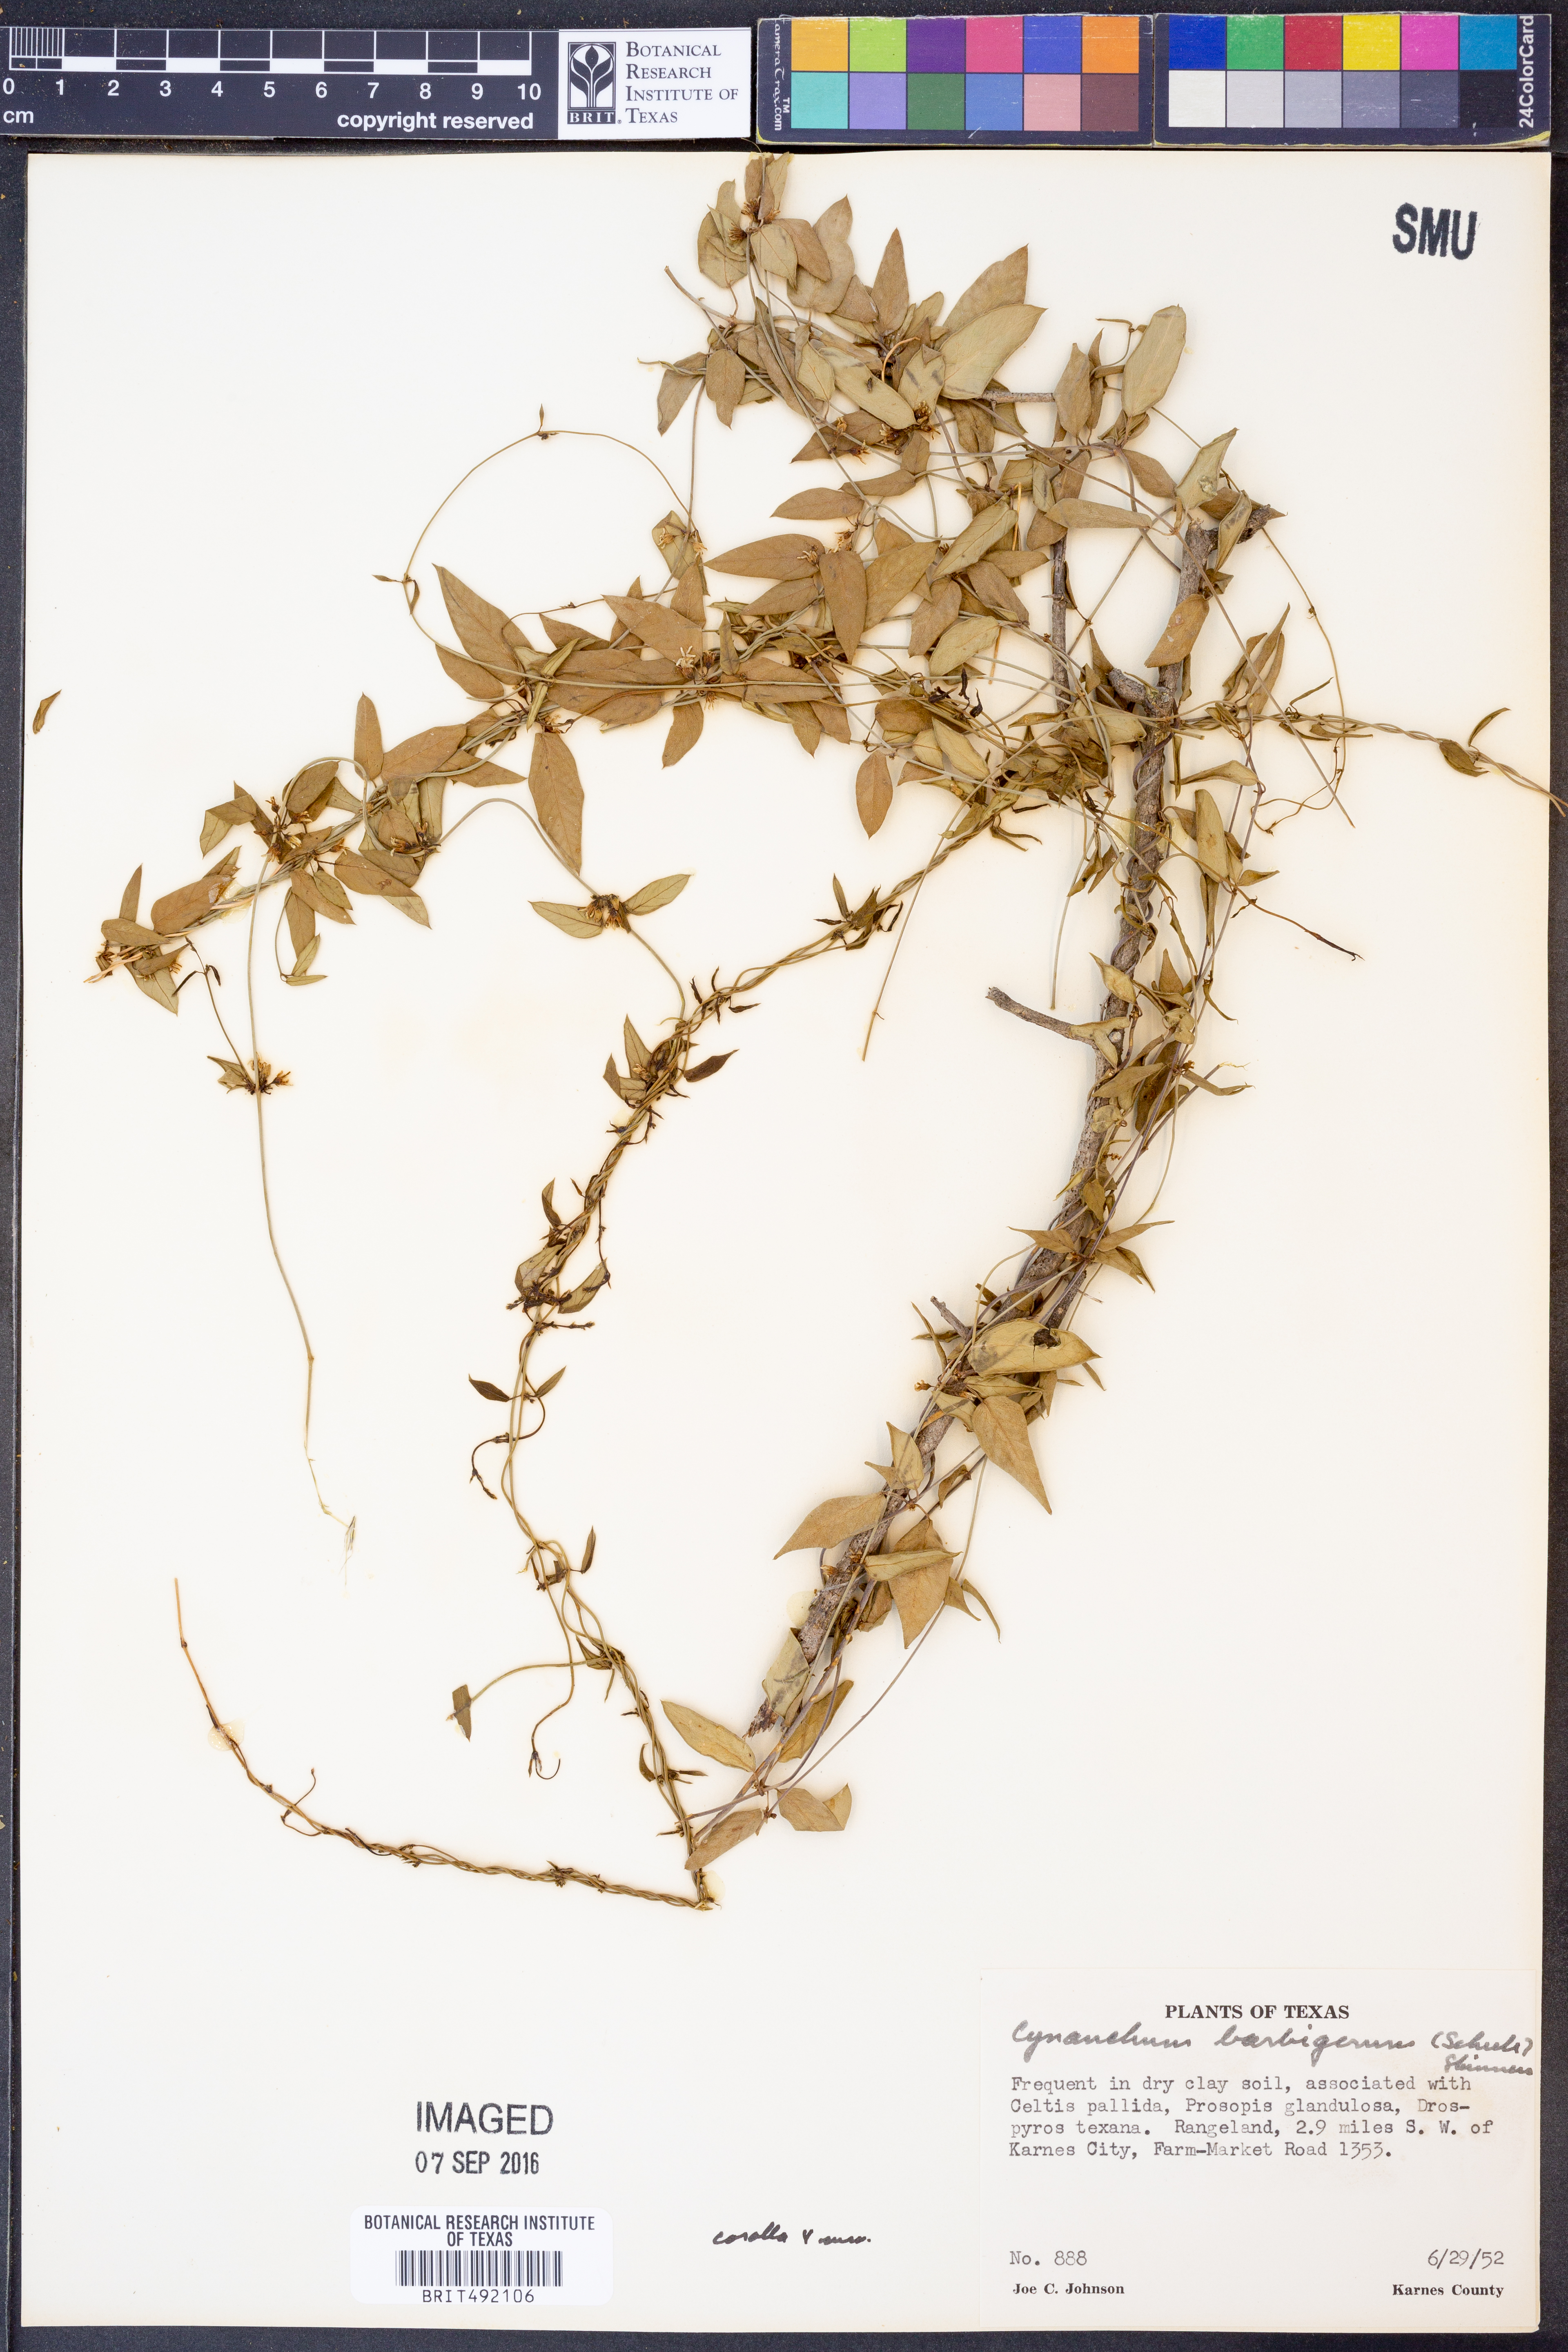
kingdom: Plantae
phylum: Tracheophyta
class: Magnoliopsida
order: Gentianales
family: Apocynaceae
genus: Metastelma
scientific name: Metastelma barbigerum
